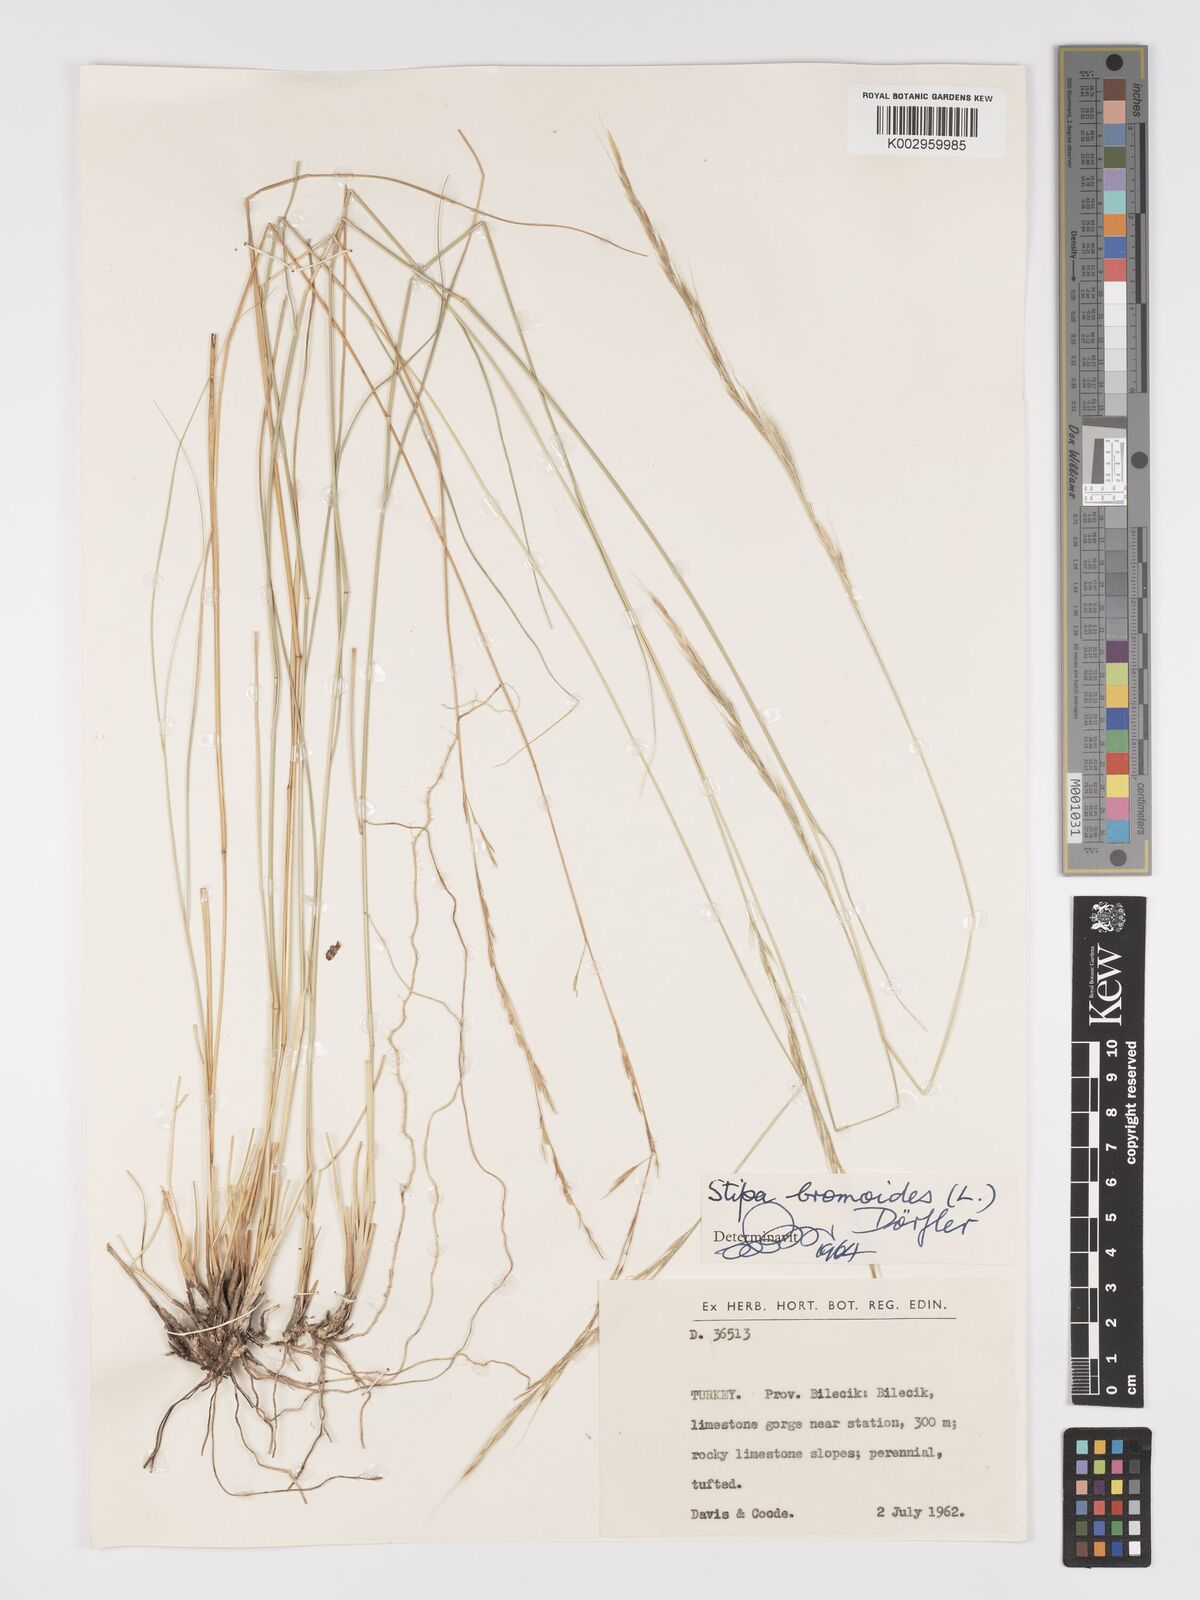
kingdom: Plantae
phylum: Tracheophyta
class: Liliopsida
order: Poales
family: Poaceae
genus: Achnatherum
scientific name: Achnatherum bromoides
